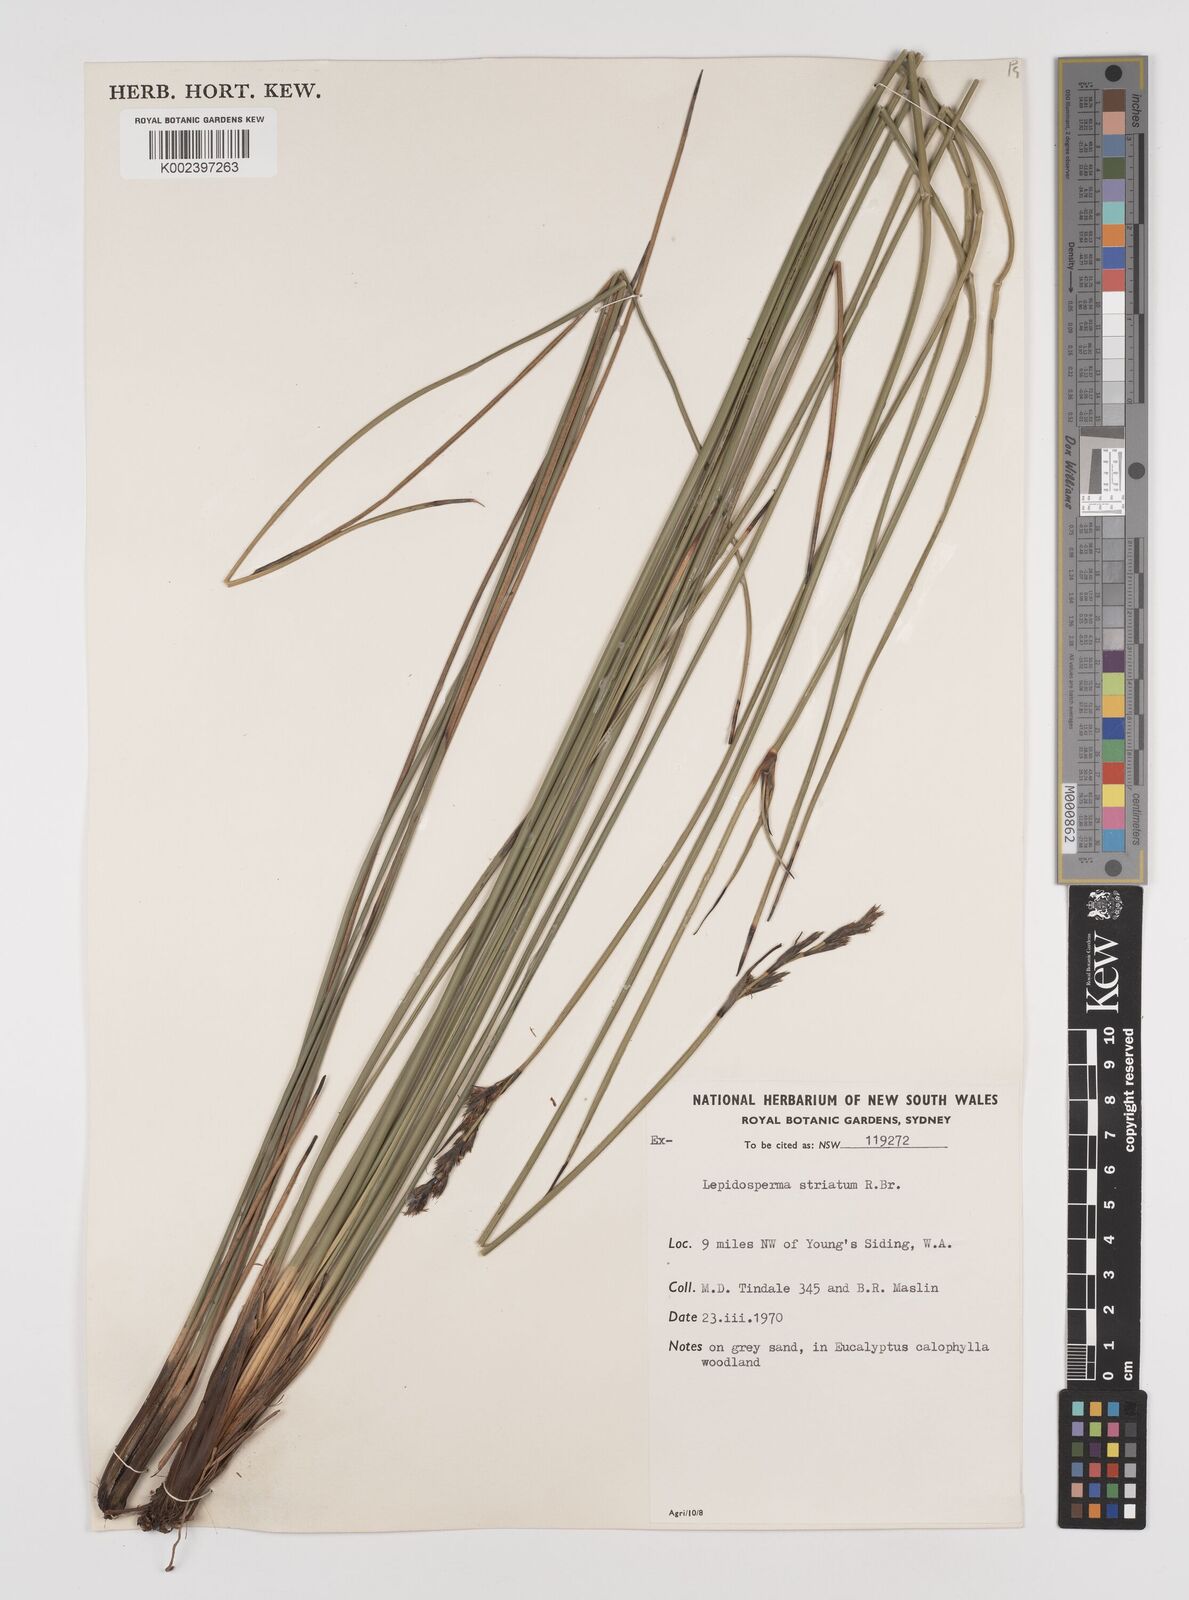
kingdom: Plantae
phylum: Tracheophyta
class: Liliopsida
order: Poales
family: Cyperaceae
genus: Lepidosperma
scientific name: Lepidosperma striatum
